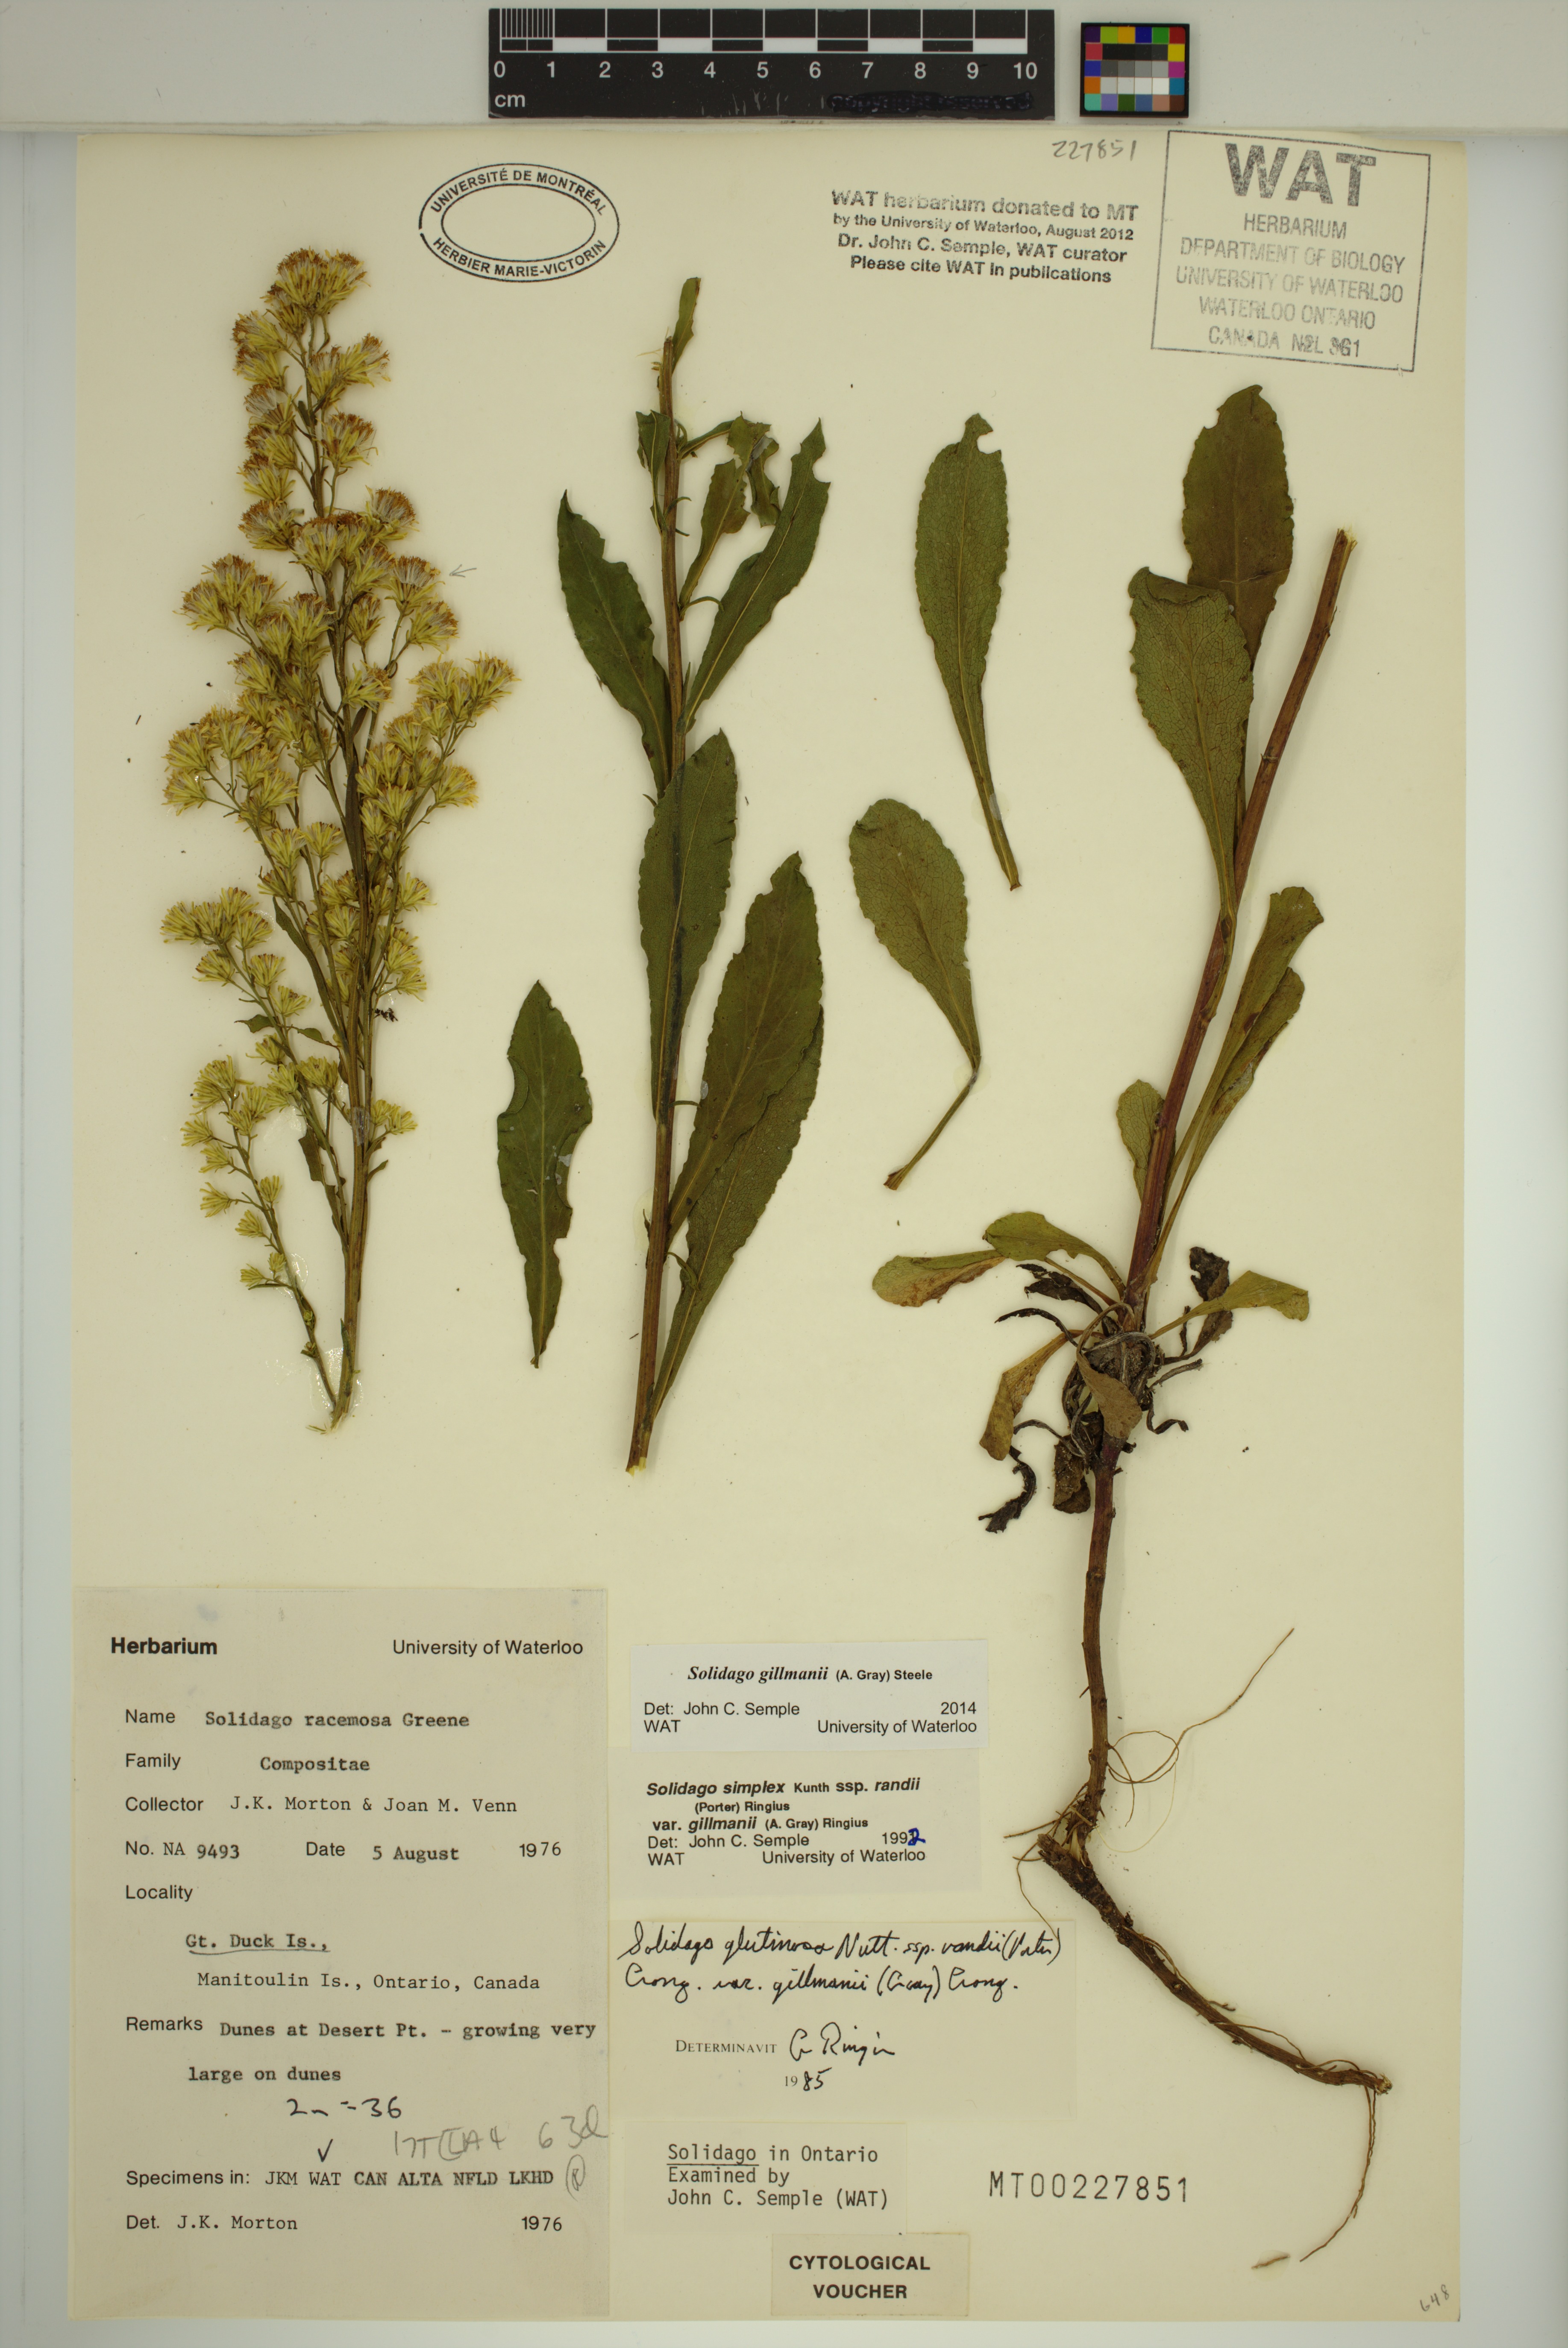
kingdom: Plantae
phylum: Tracheophyta
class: Magnoliopsida
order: Asterales
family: Asteraceae
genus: Solidago
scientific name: Solidago gillmanii
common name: Gillman's goldenrod
